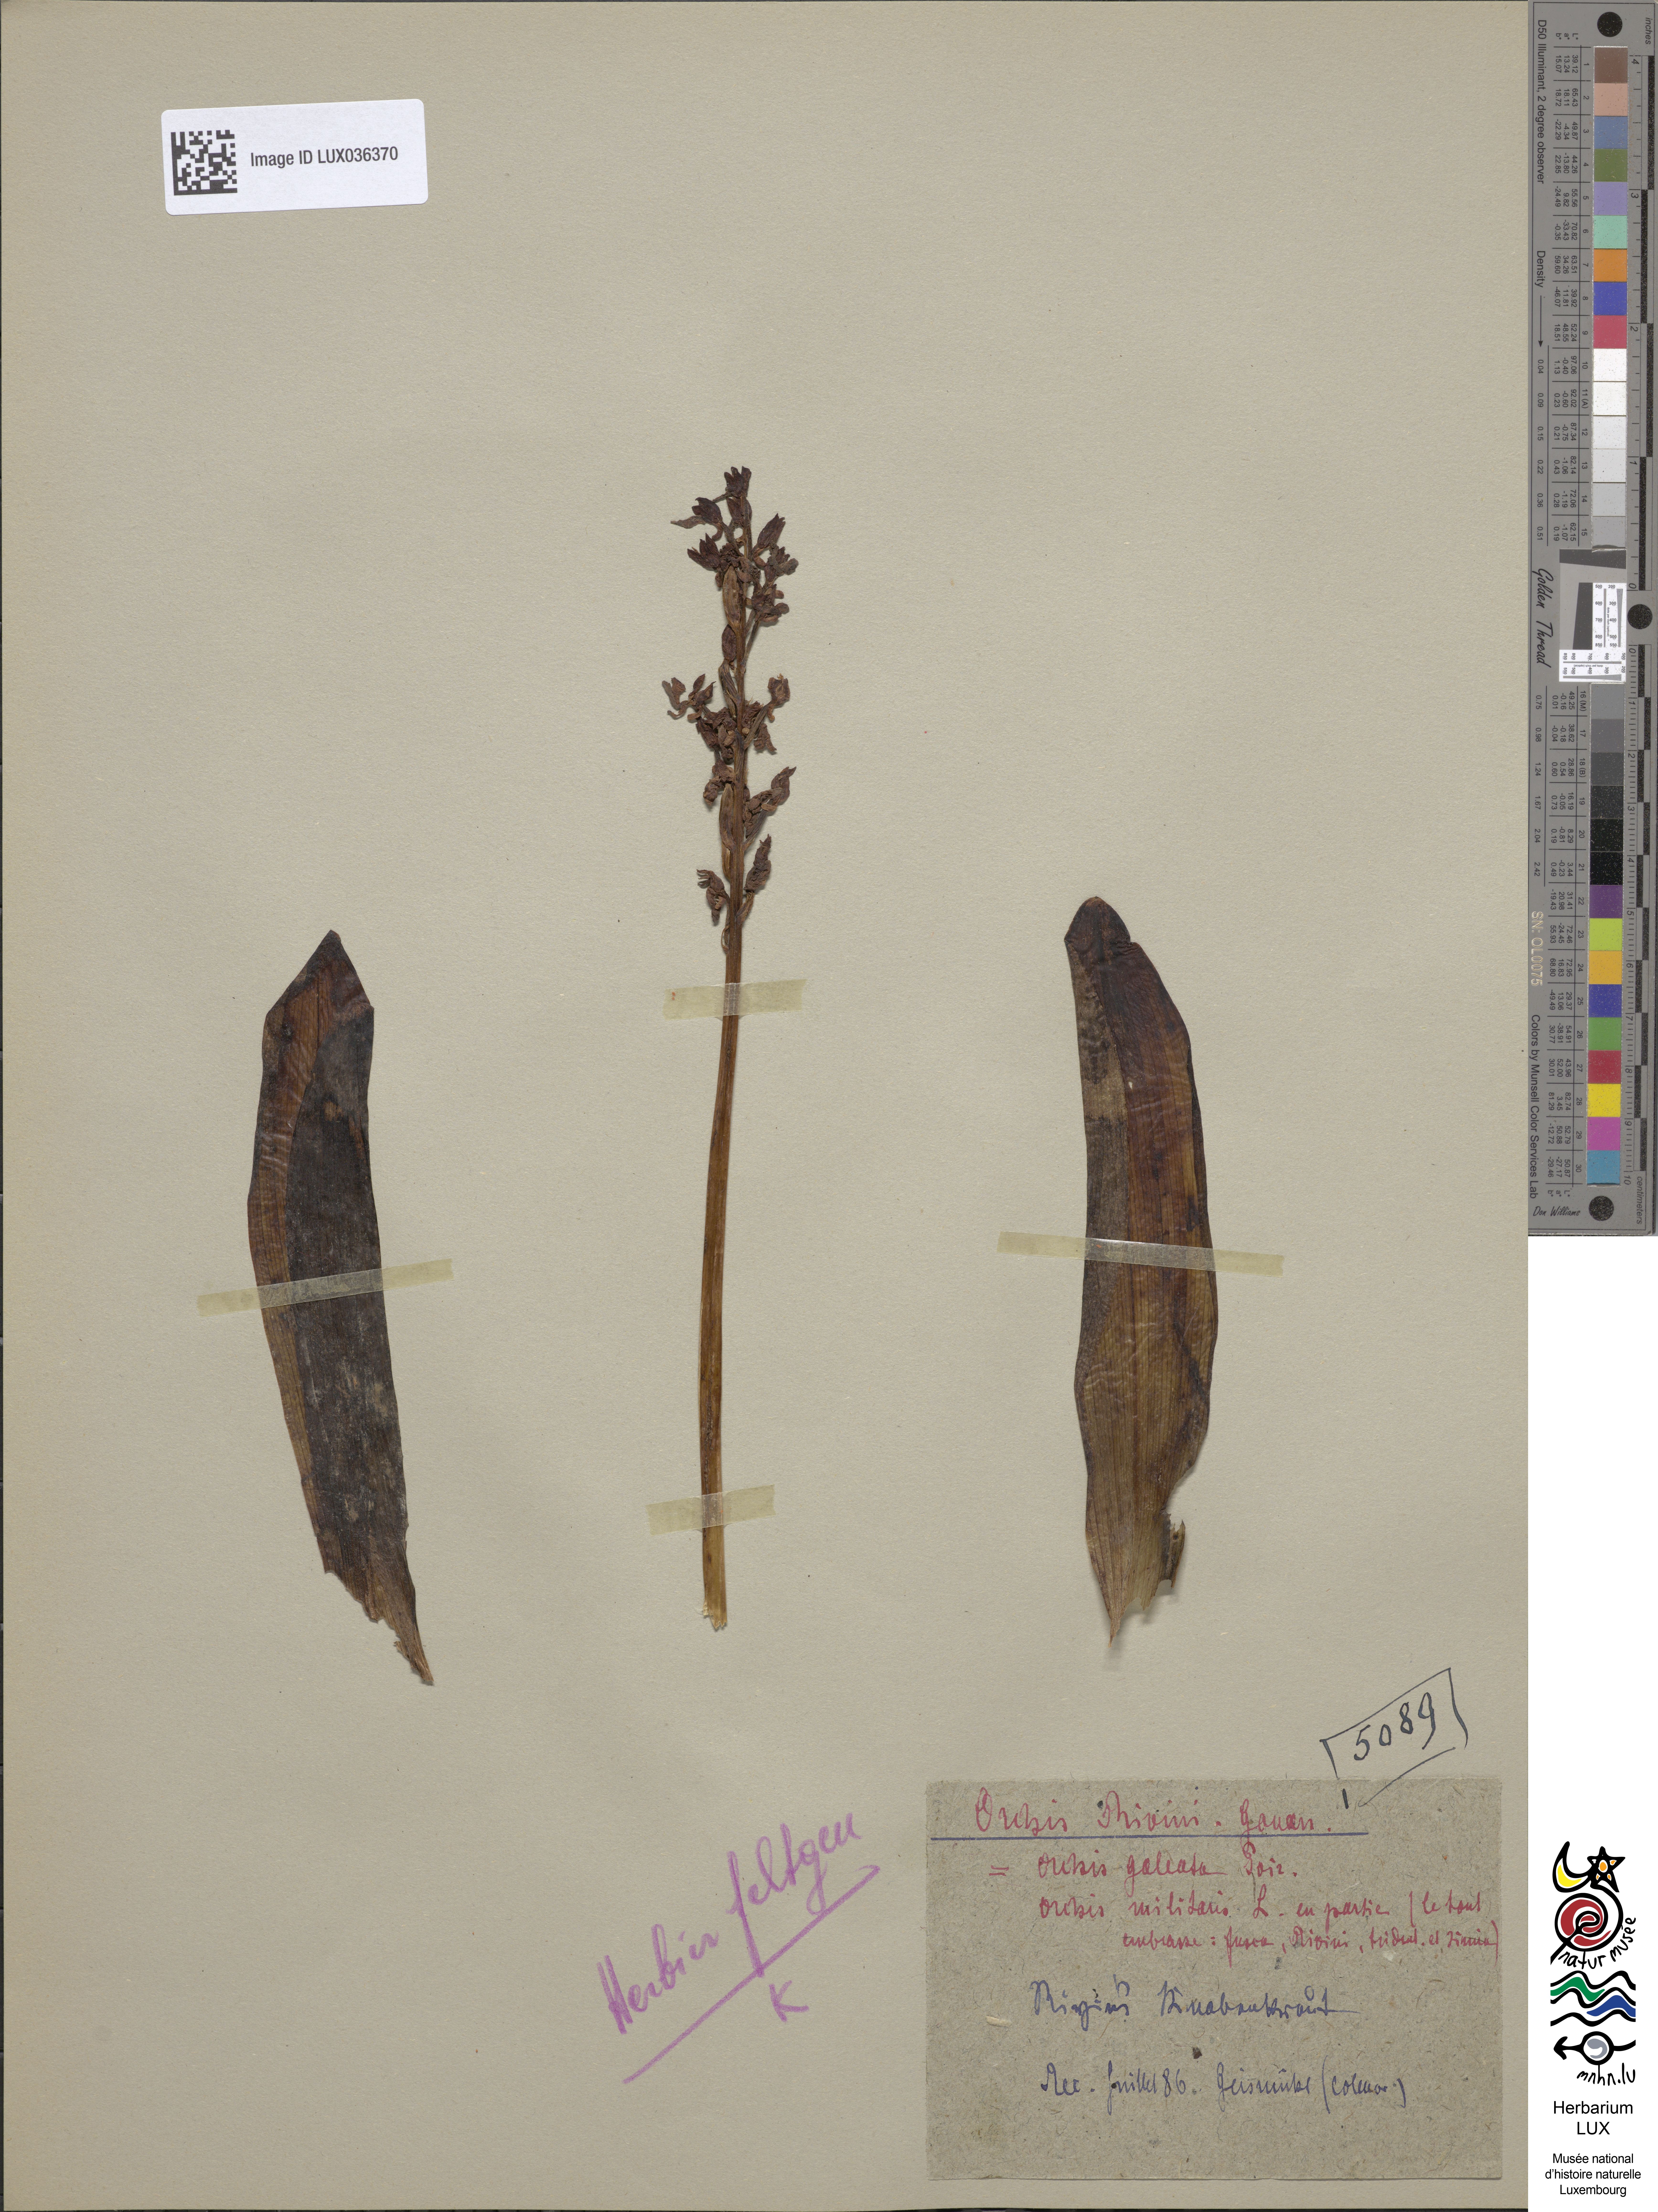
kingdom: Plantae
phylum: Tracheophyta
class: Liliopsida
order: Asparagales
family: Orchidaceae
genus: Orchis
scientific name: Orchis militaris
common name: Military orchid
